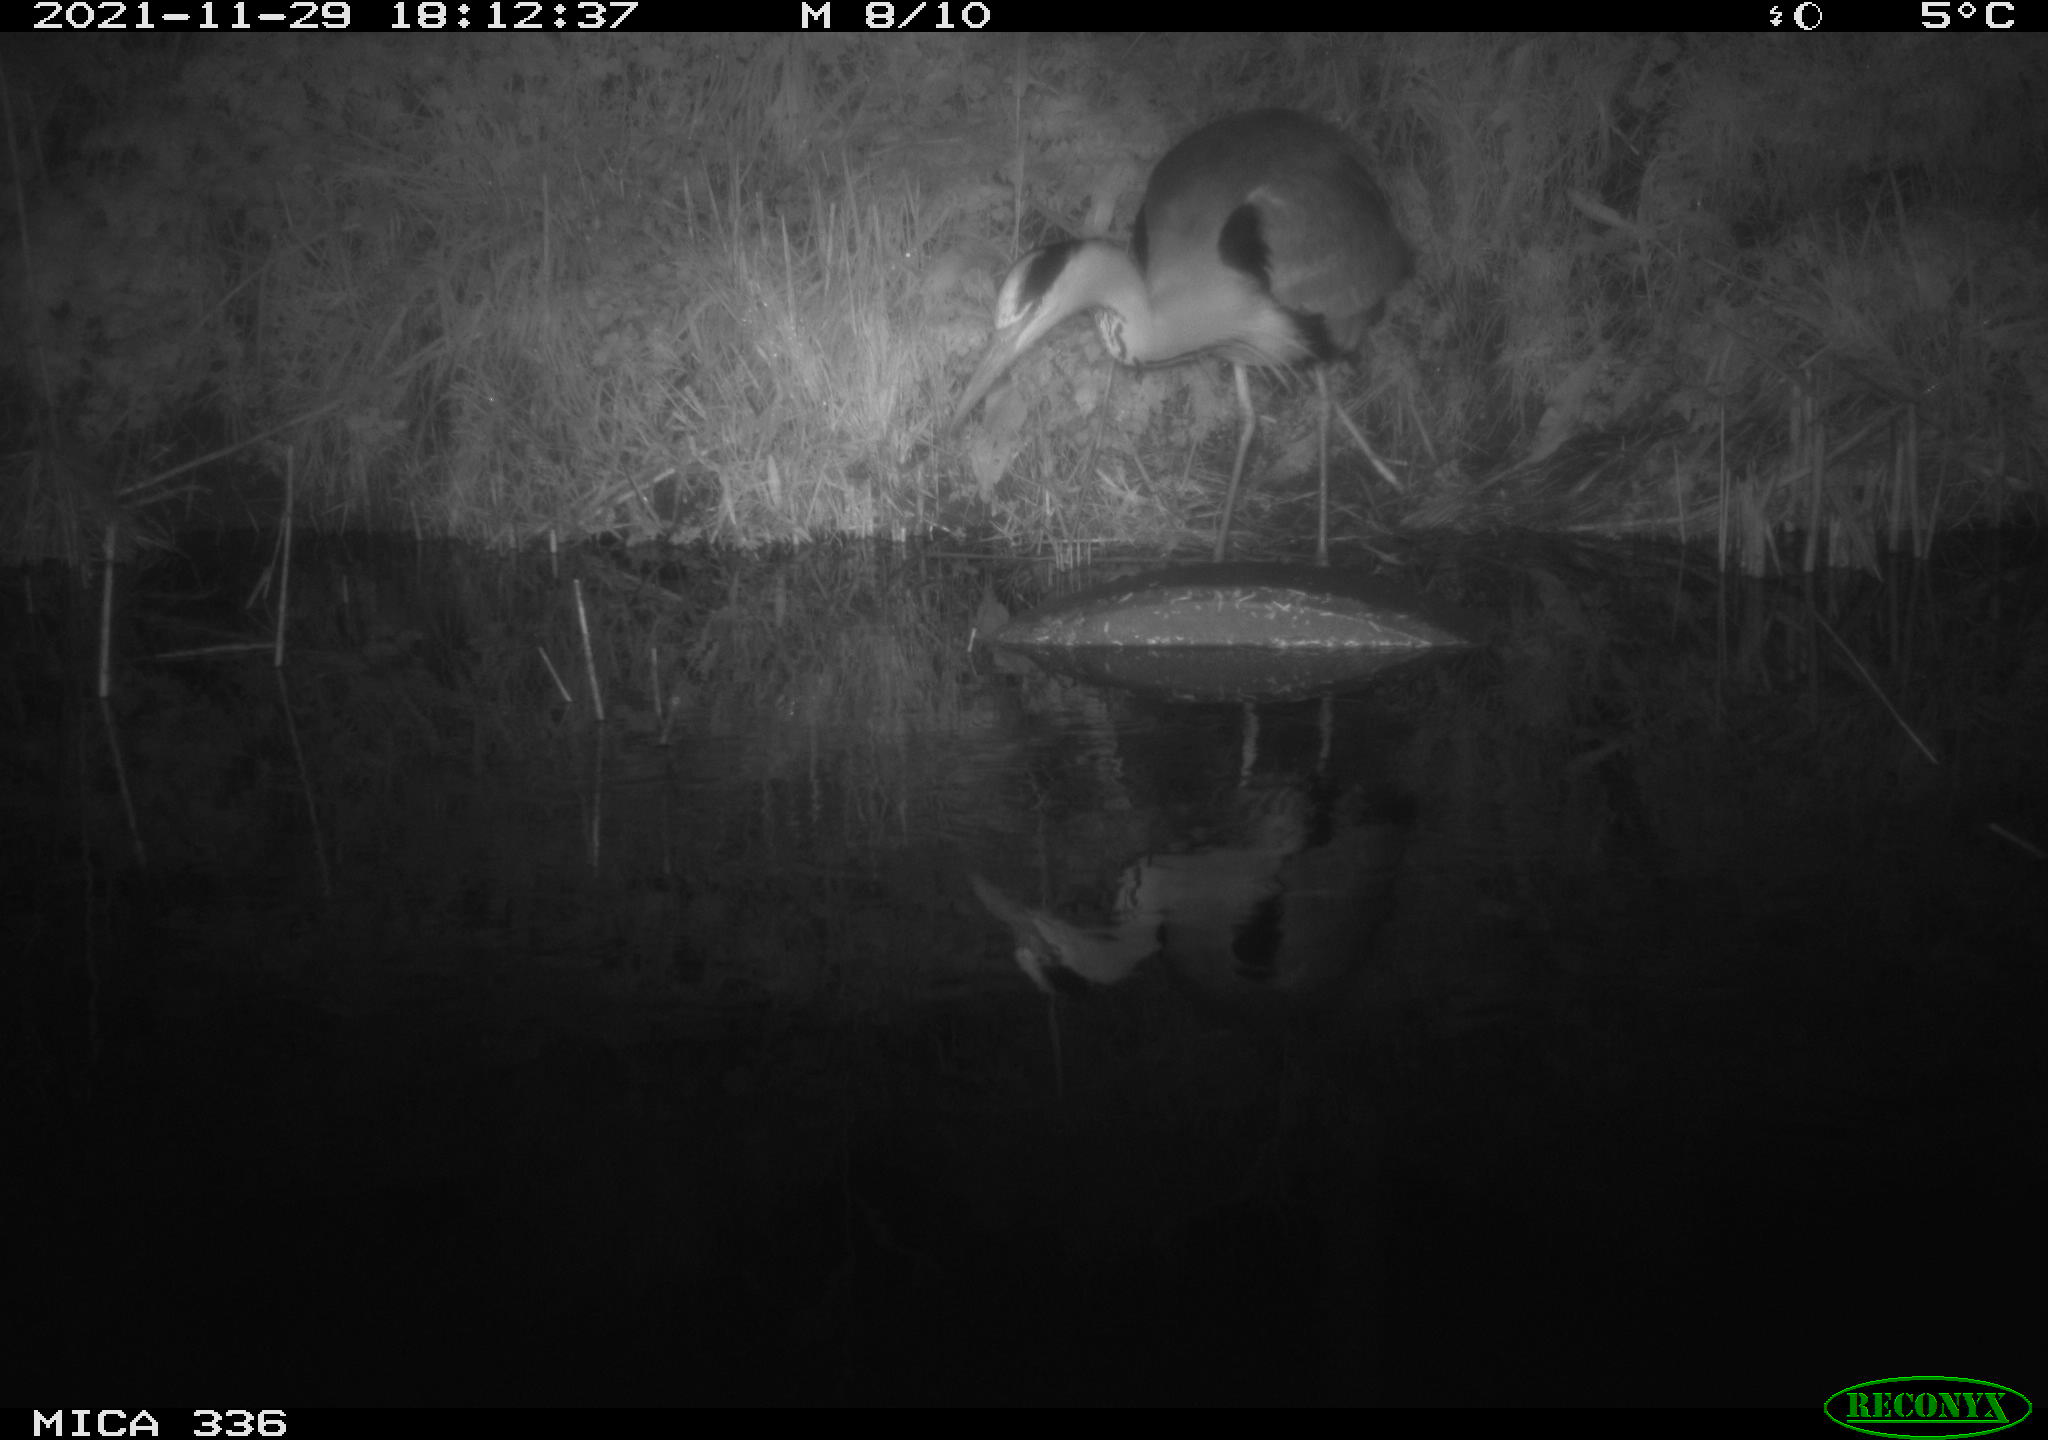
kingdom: Animalia
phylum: Chordata
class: Aves
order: Pelecaniformes
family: Ardeidae
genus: Ardea
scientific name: Ardea cinerea
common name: Grey heron
